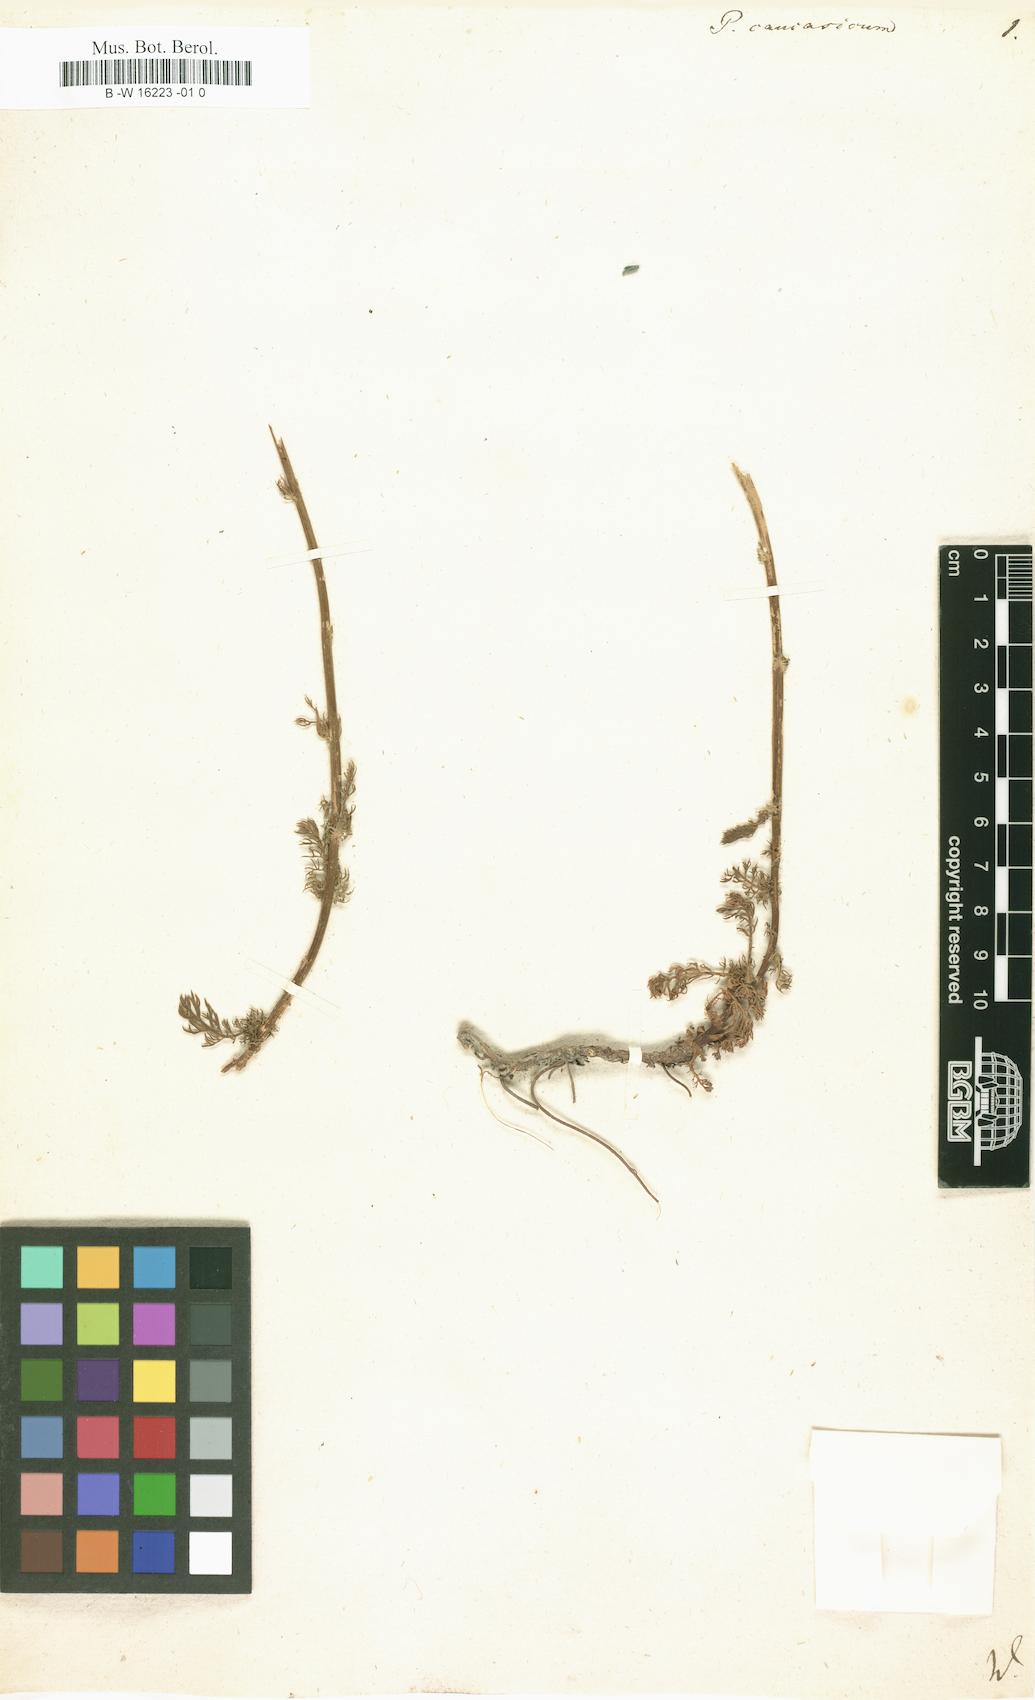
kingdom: Plantae
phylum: Tracheophyta
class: Magnoliopsida
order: Asterales
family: Asteraceae
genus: Tripleurospermum
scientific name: Tripleurospermum caucasicum
